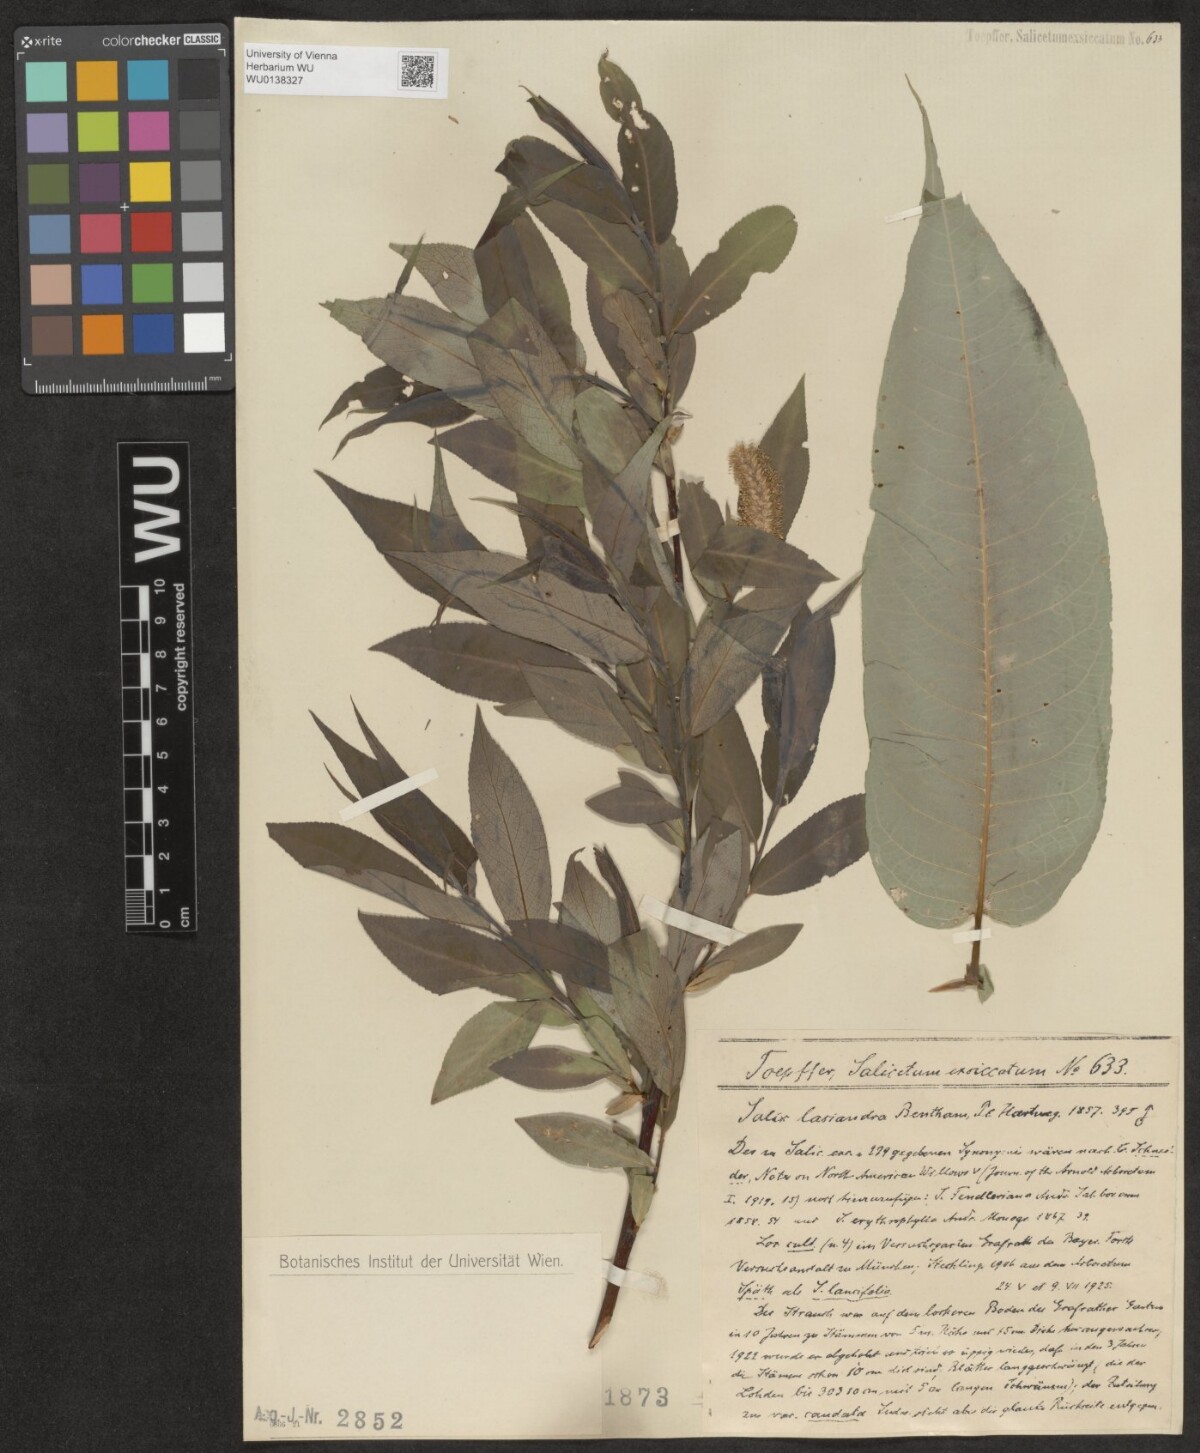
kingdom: Plantae
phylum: Tracheophyta
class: Magnoliopsida
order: Malpighiales
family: Salicaceae
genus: Salix
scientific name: Salix lucida
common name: Shining willow
